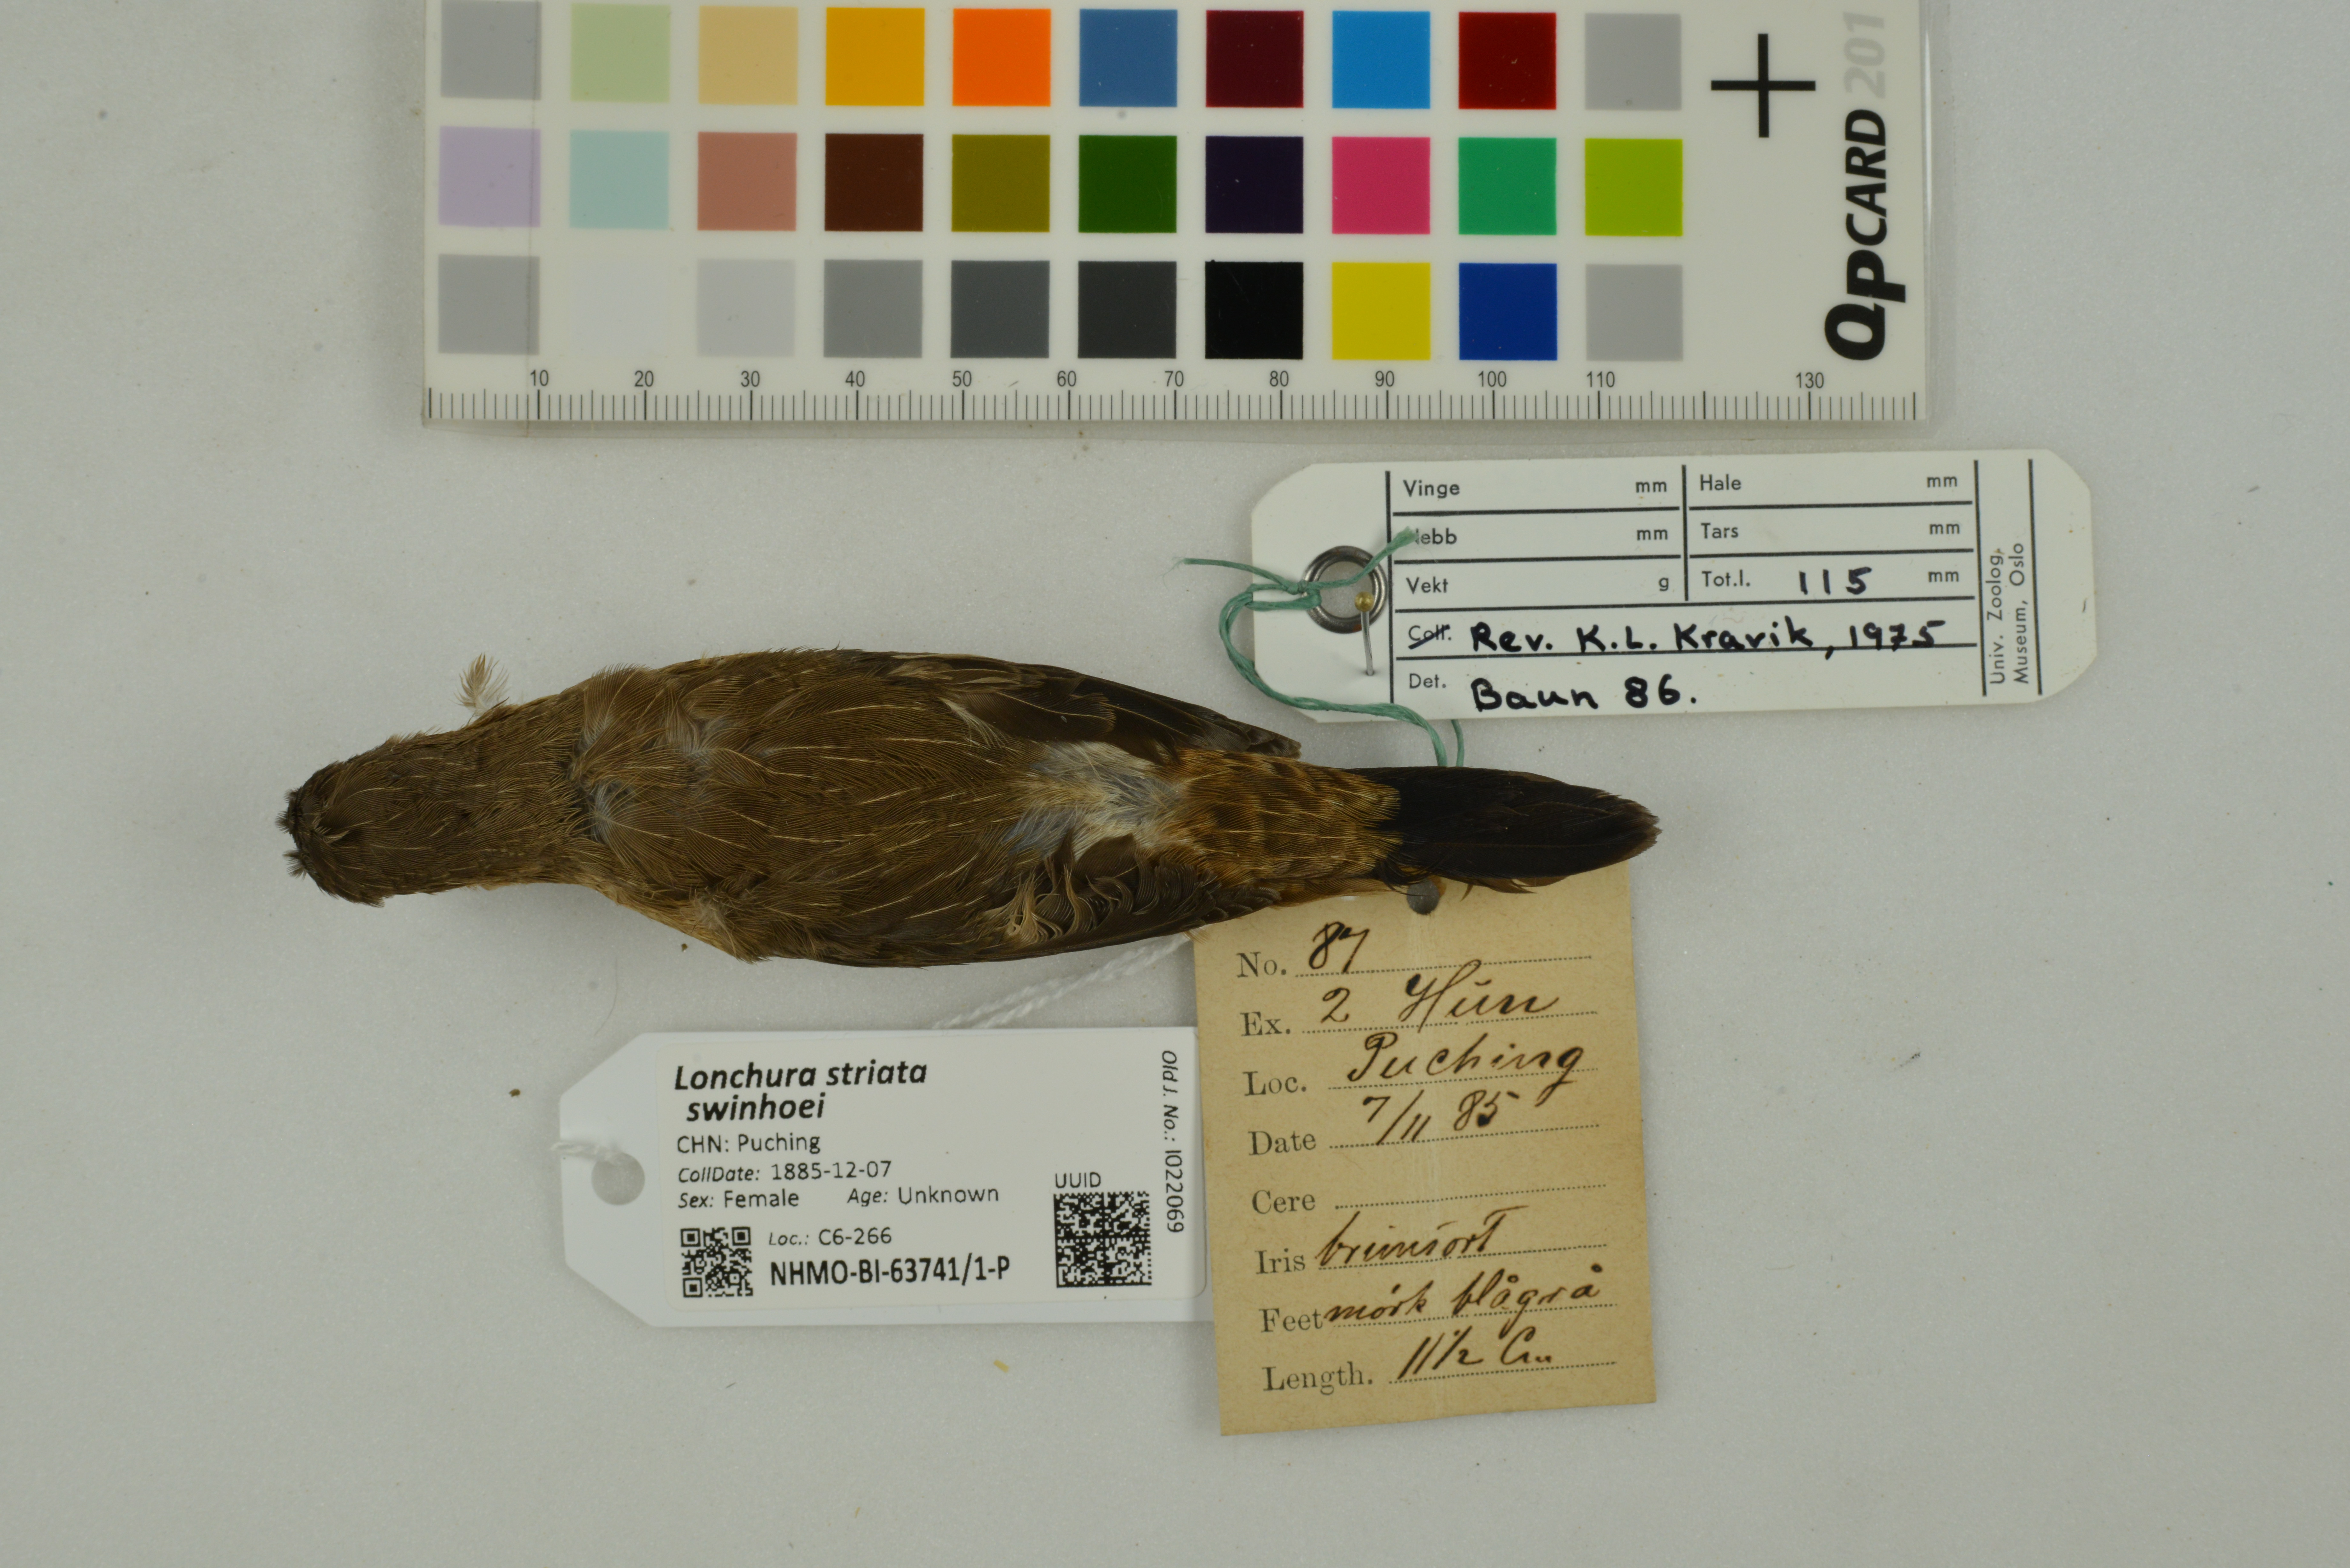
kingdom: Animalia
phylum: Chordata
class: Aves
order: Passeriformes
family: Estrildidae
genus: Lonchura
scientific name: Lonchura striata
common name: White-rumped munia
